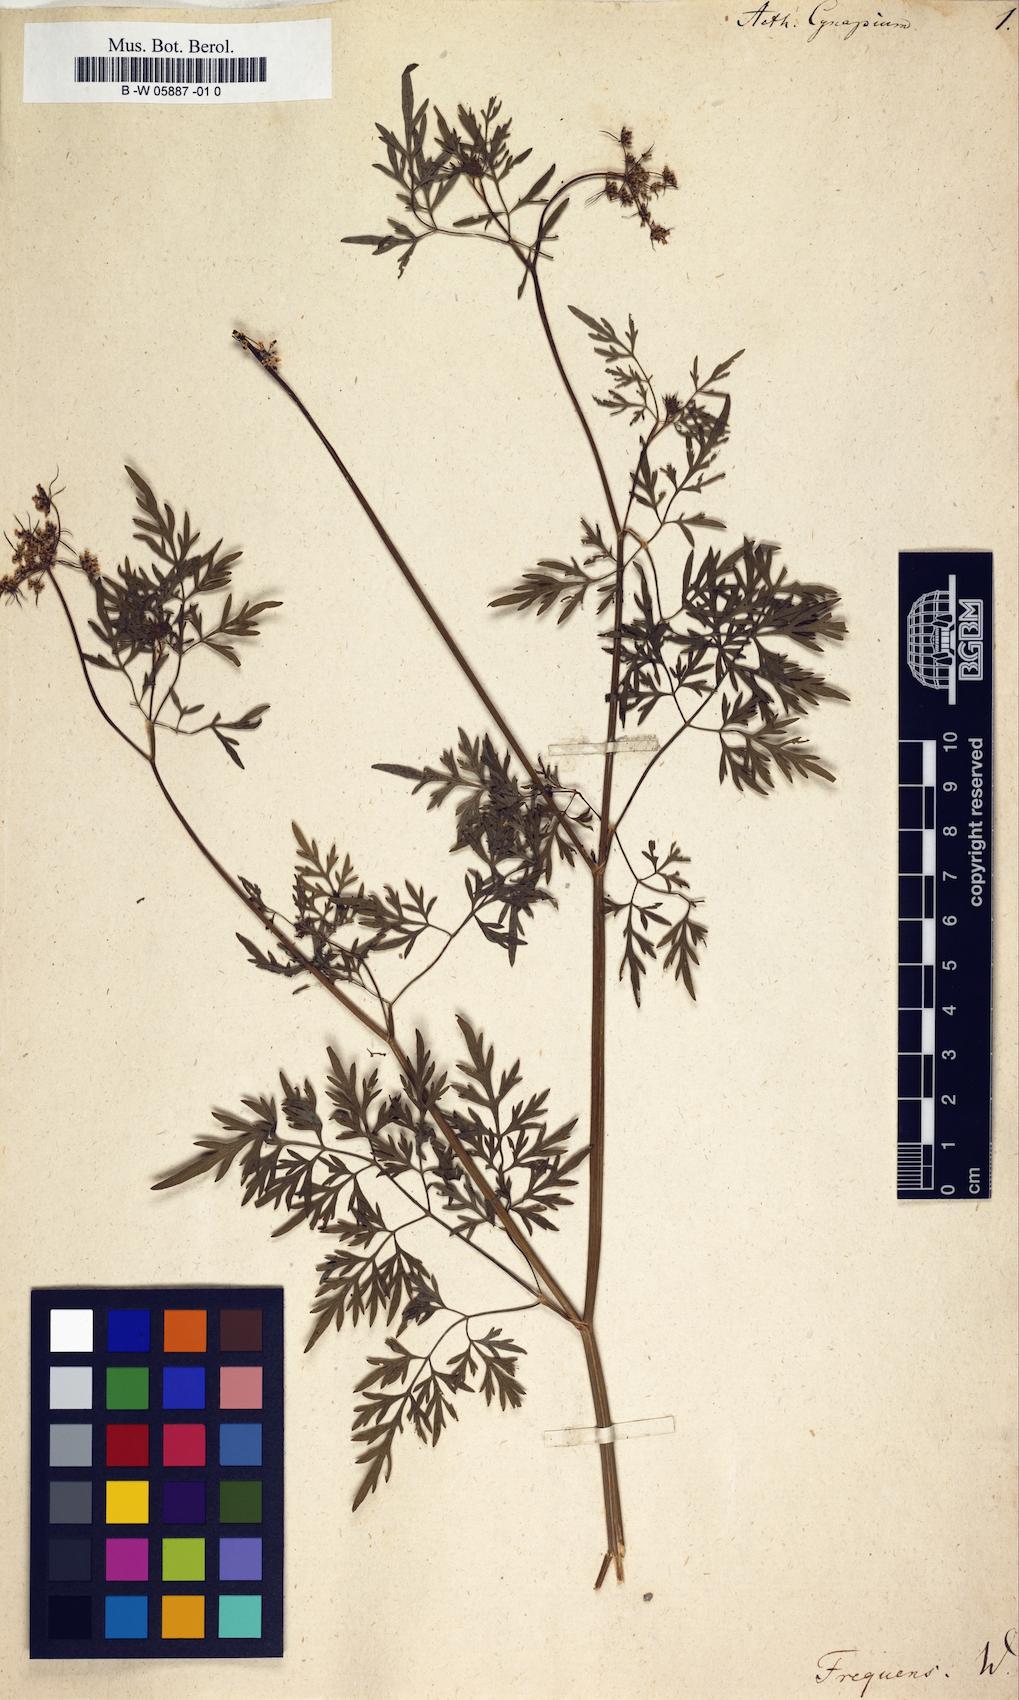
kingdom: Plantae
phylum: Tracheophyta
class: Magnoliopsida
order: Apiales
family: Apiaceae
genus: Aethusa
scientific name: Aethusa cynapium
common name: Fool's parsley
